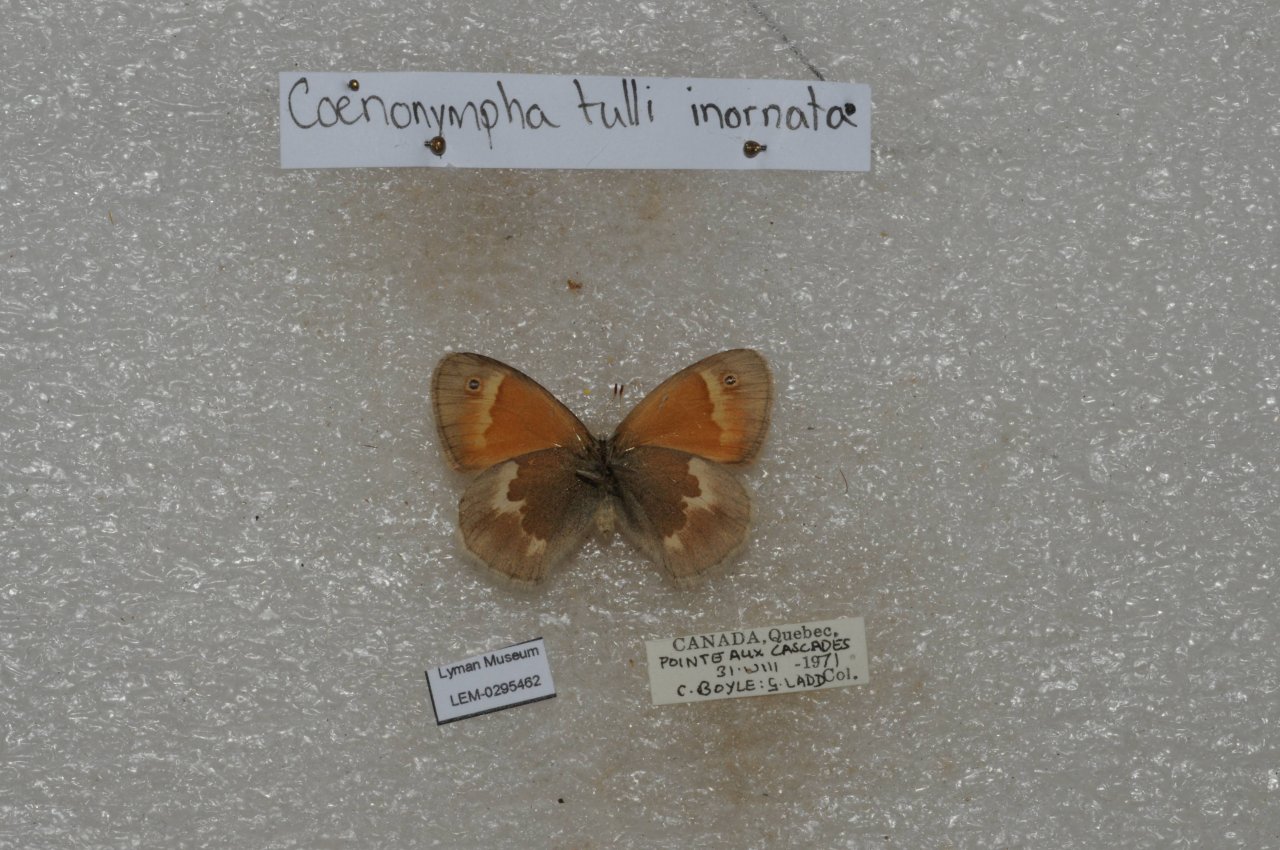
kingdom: Animalia
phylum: Arthropoda
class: Insecta
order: Lepidoptera
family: Nymphalidae
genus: Coenonympha
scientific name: Coenonympha tullia
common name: Large Heath
